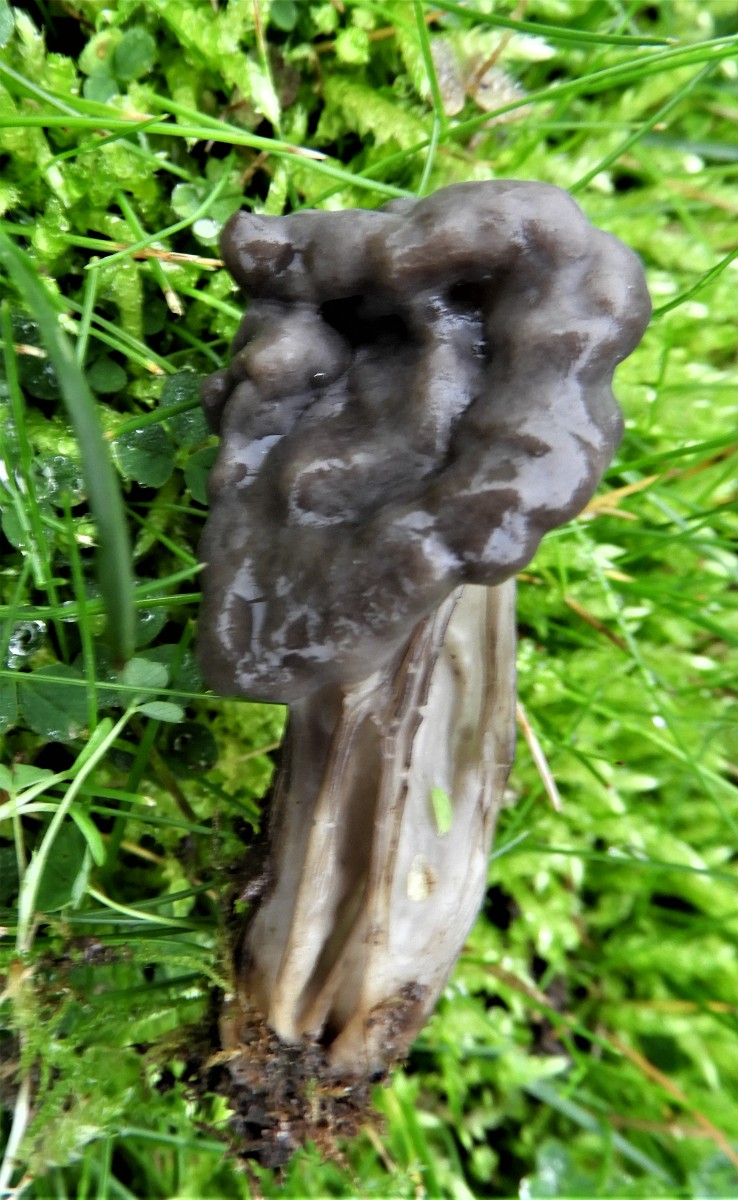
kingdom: Fungi
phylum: Ascomycota
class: Pezizomycetes
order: Pezizales
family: Helvellaceae
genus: Helvella
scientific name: Helvella lacunosa
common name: grubet foldhat
